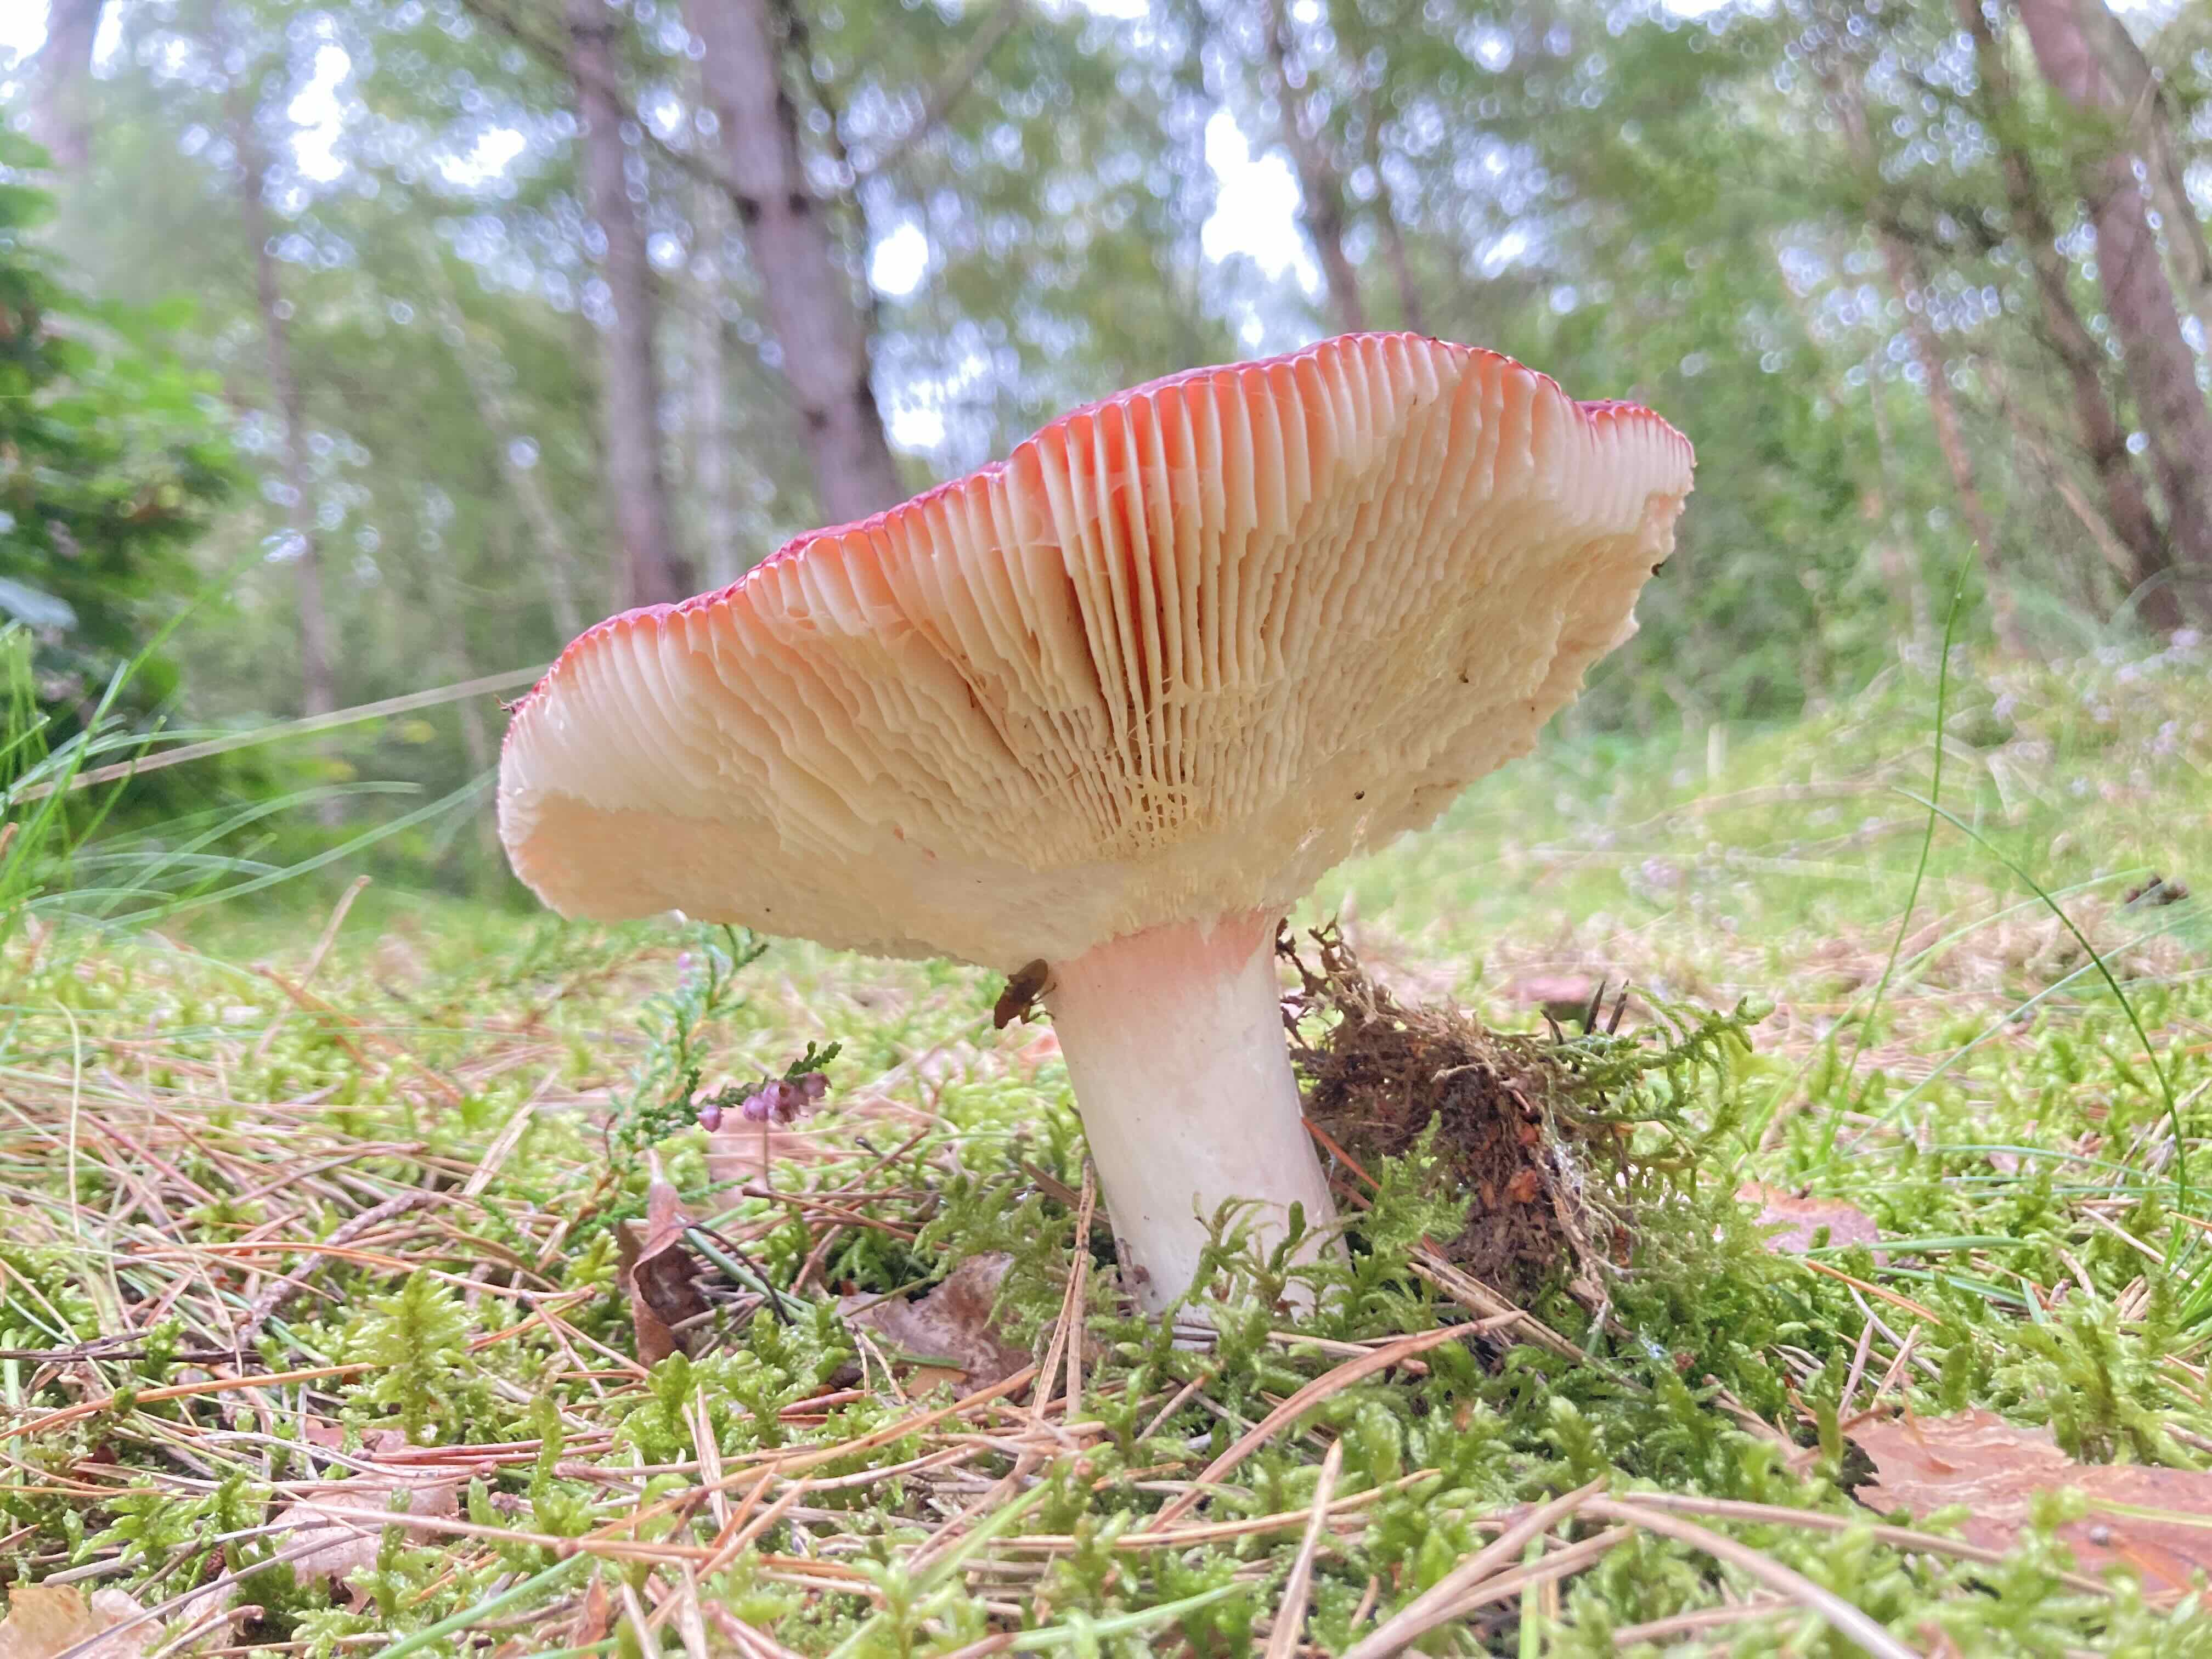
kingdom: Fungi
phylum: Basidiomycota
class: Agaricomycetes
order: Russulales
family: Russulaceae
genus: Russula
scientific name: Russula
